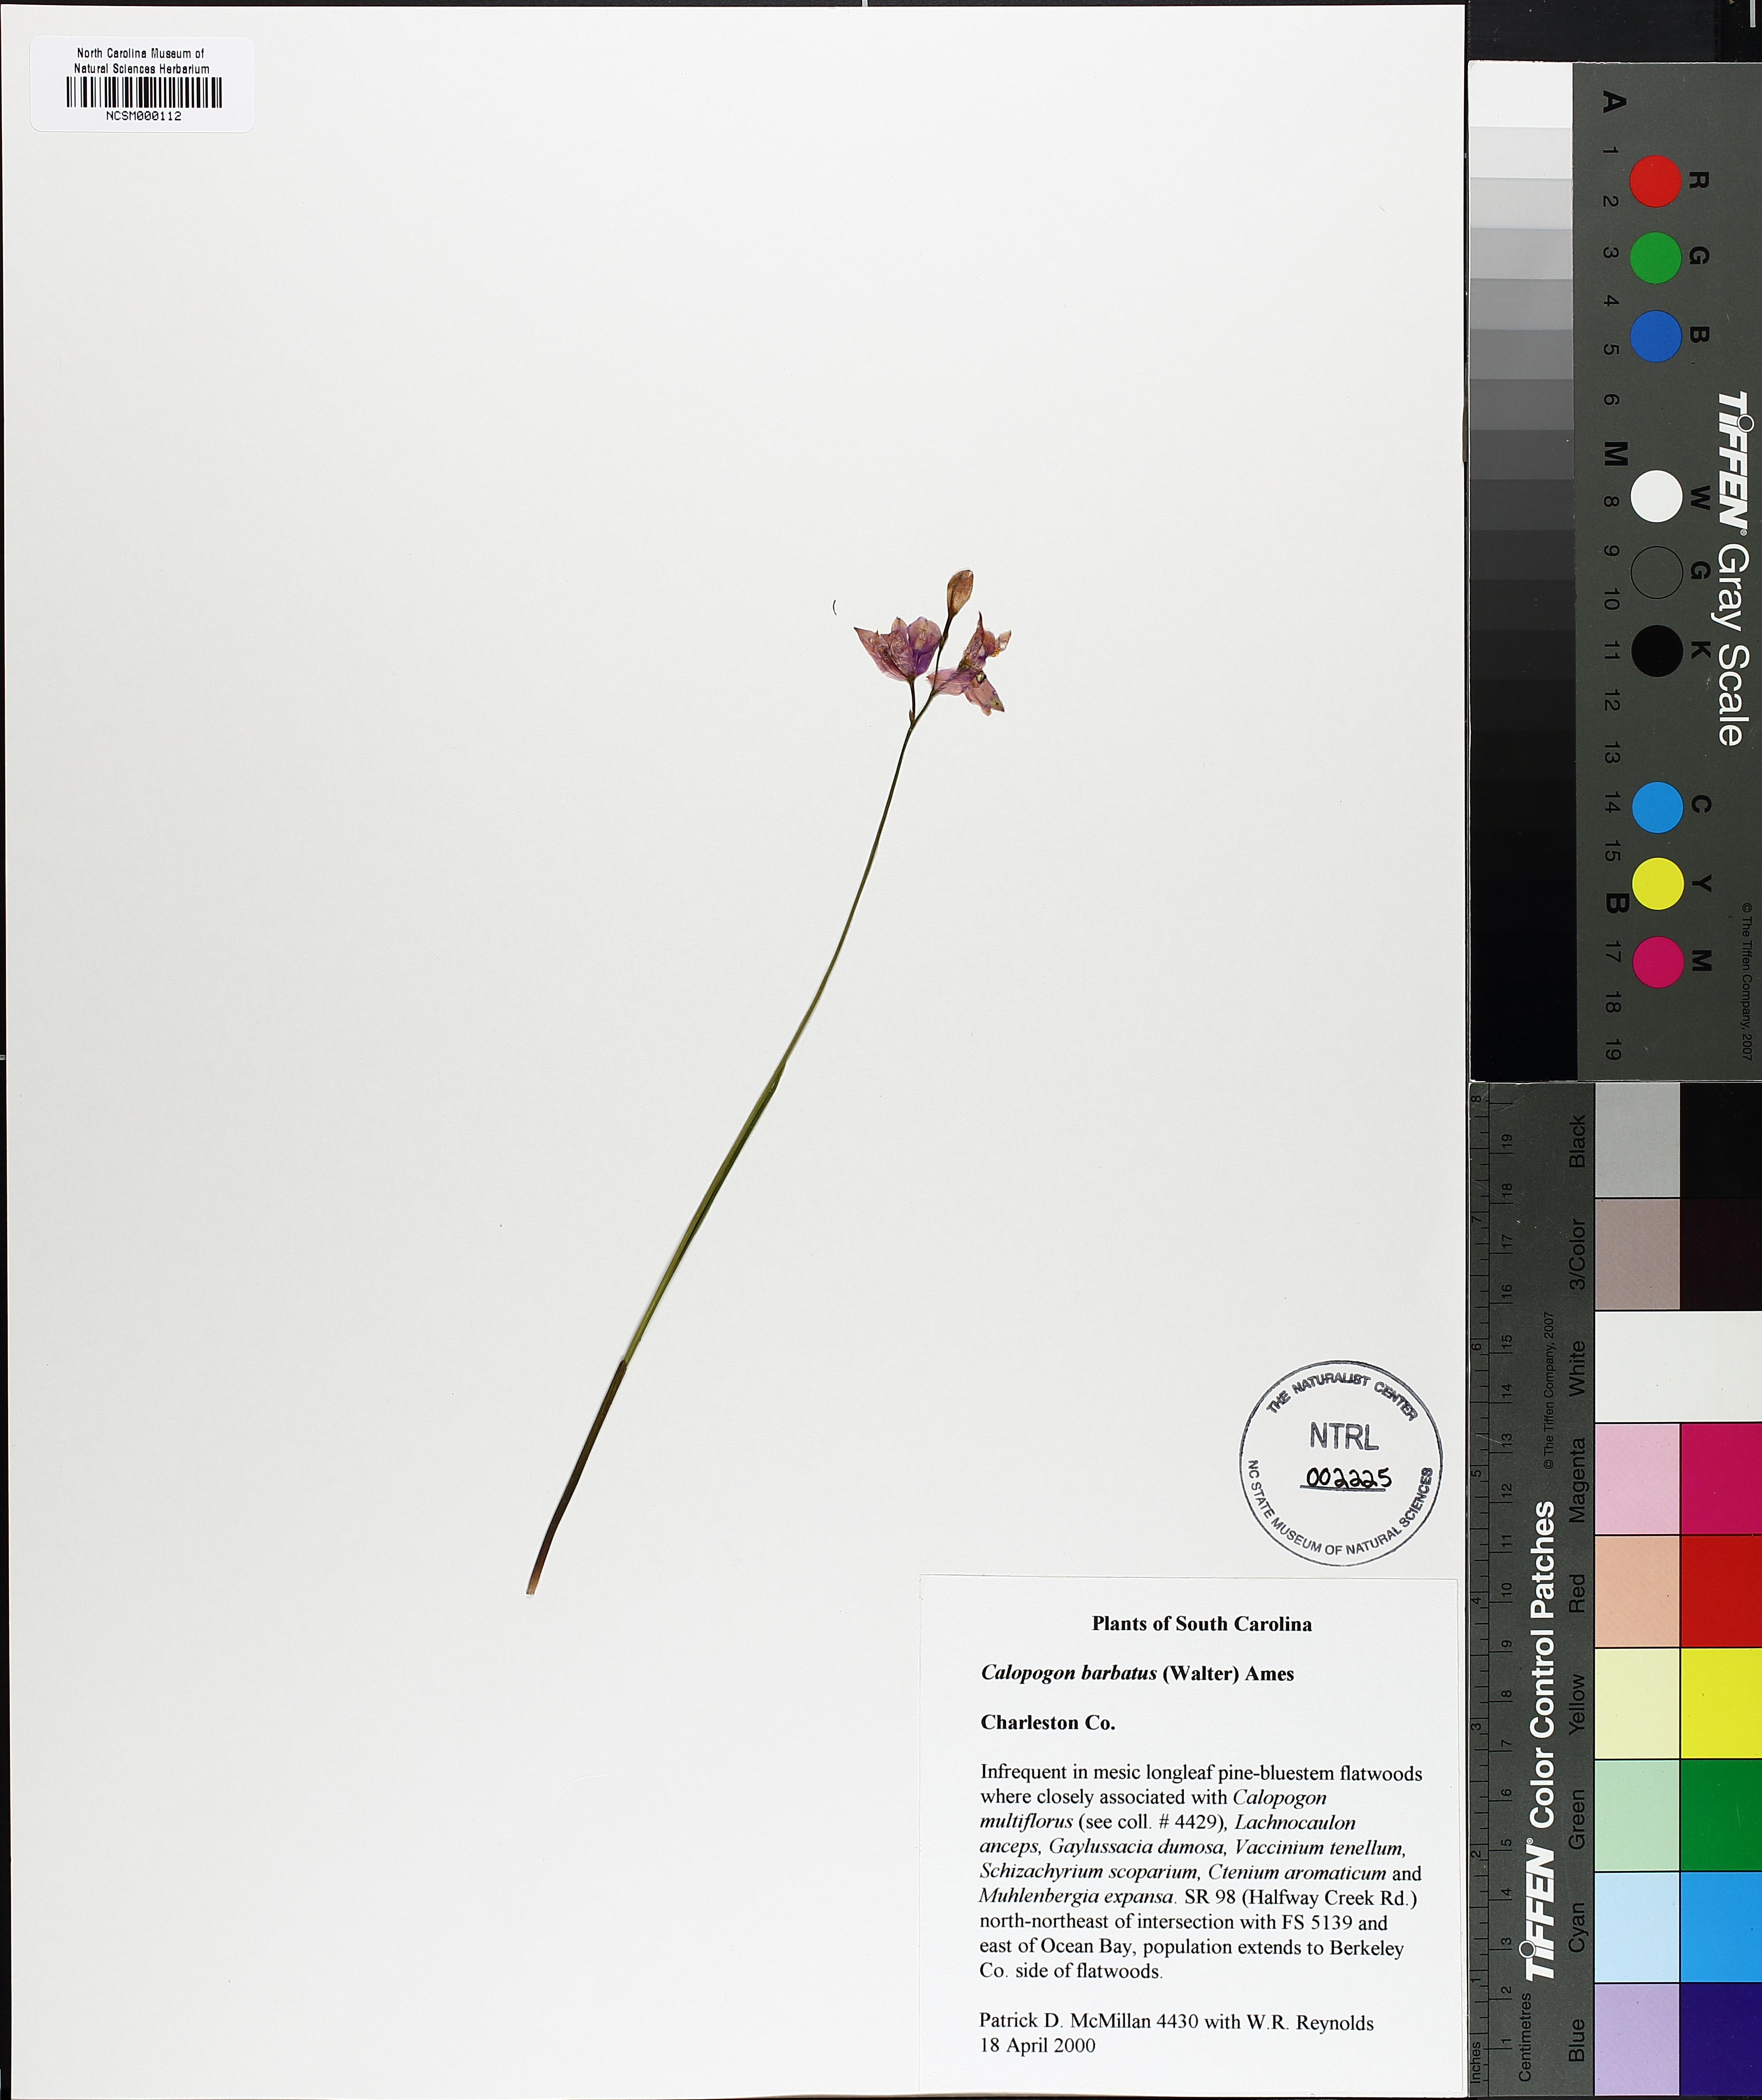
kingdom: Plantae
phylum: Tracheophyta
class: Liliopsida
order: Asparagales
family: Orchidaceae
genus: Calopogon
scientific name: Calopogon barbatus
